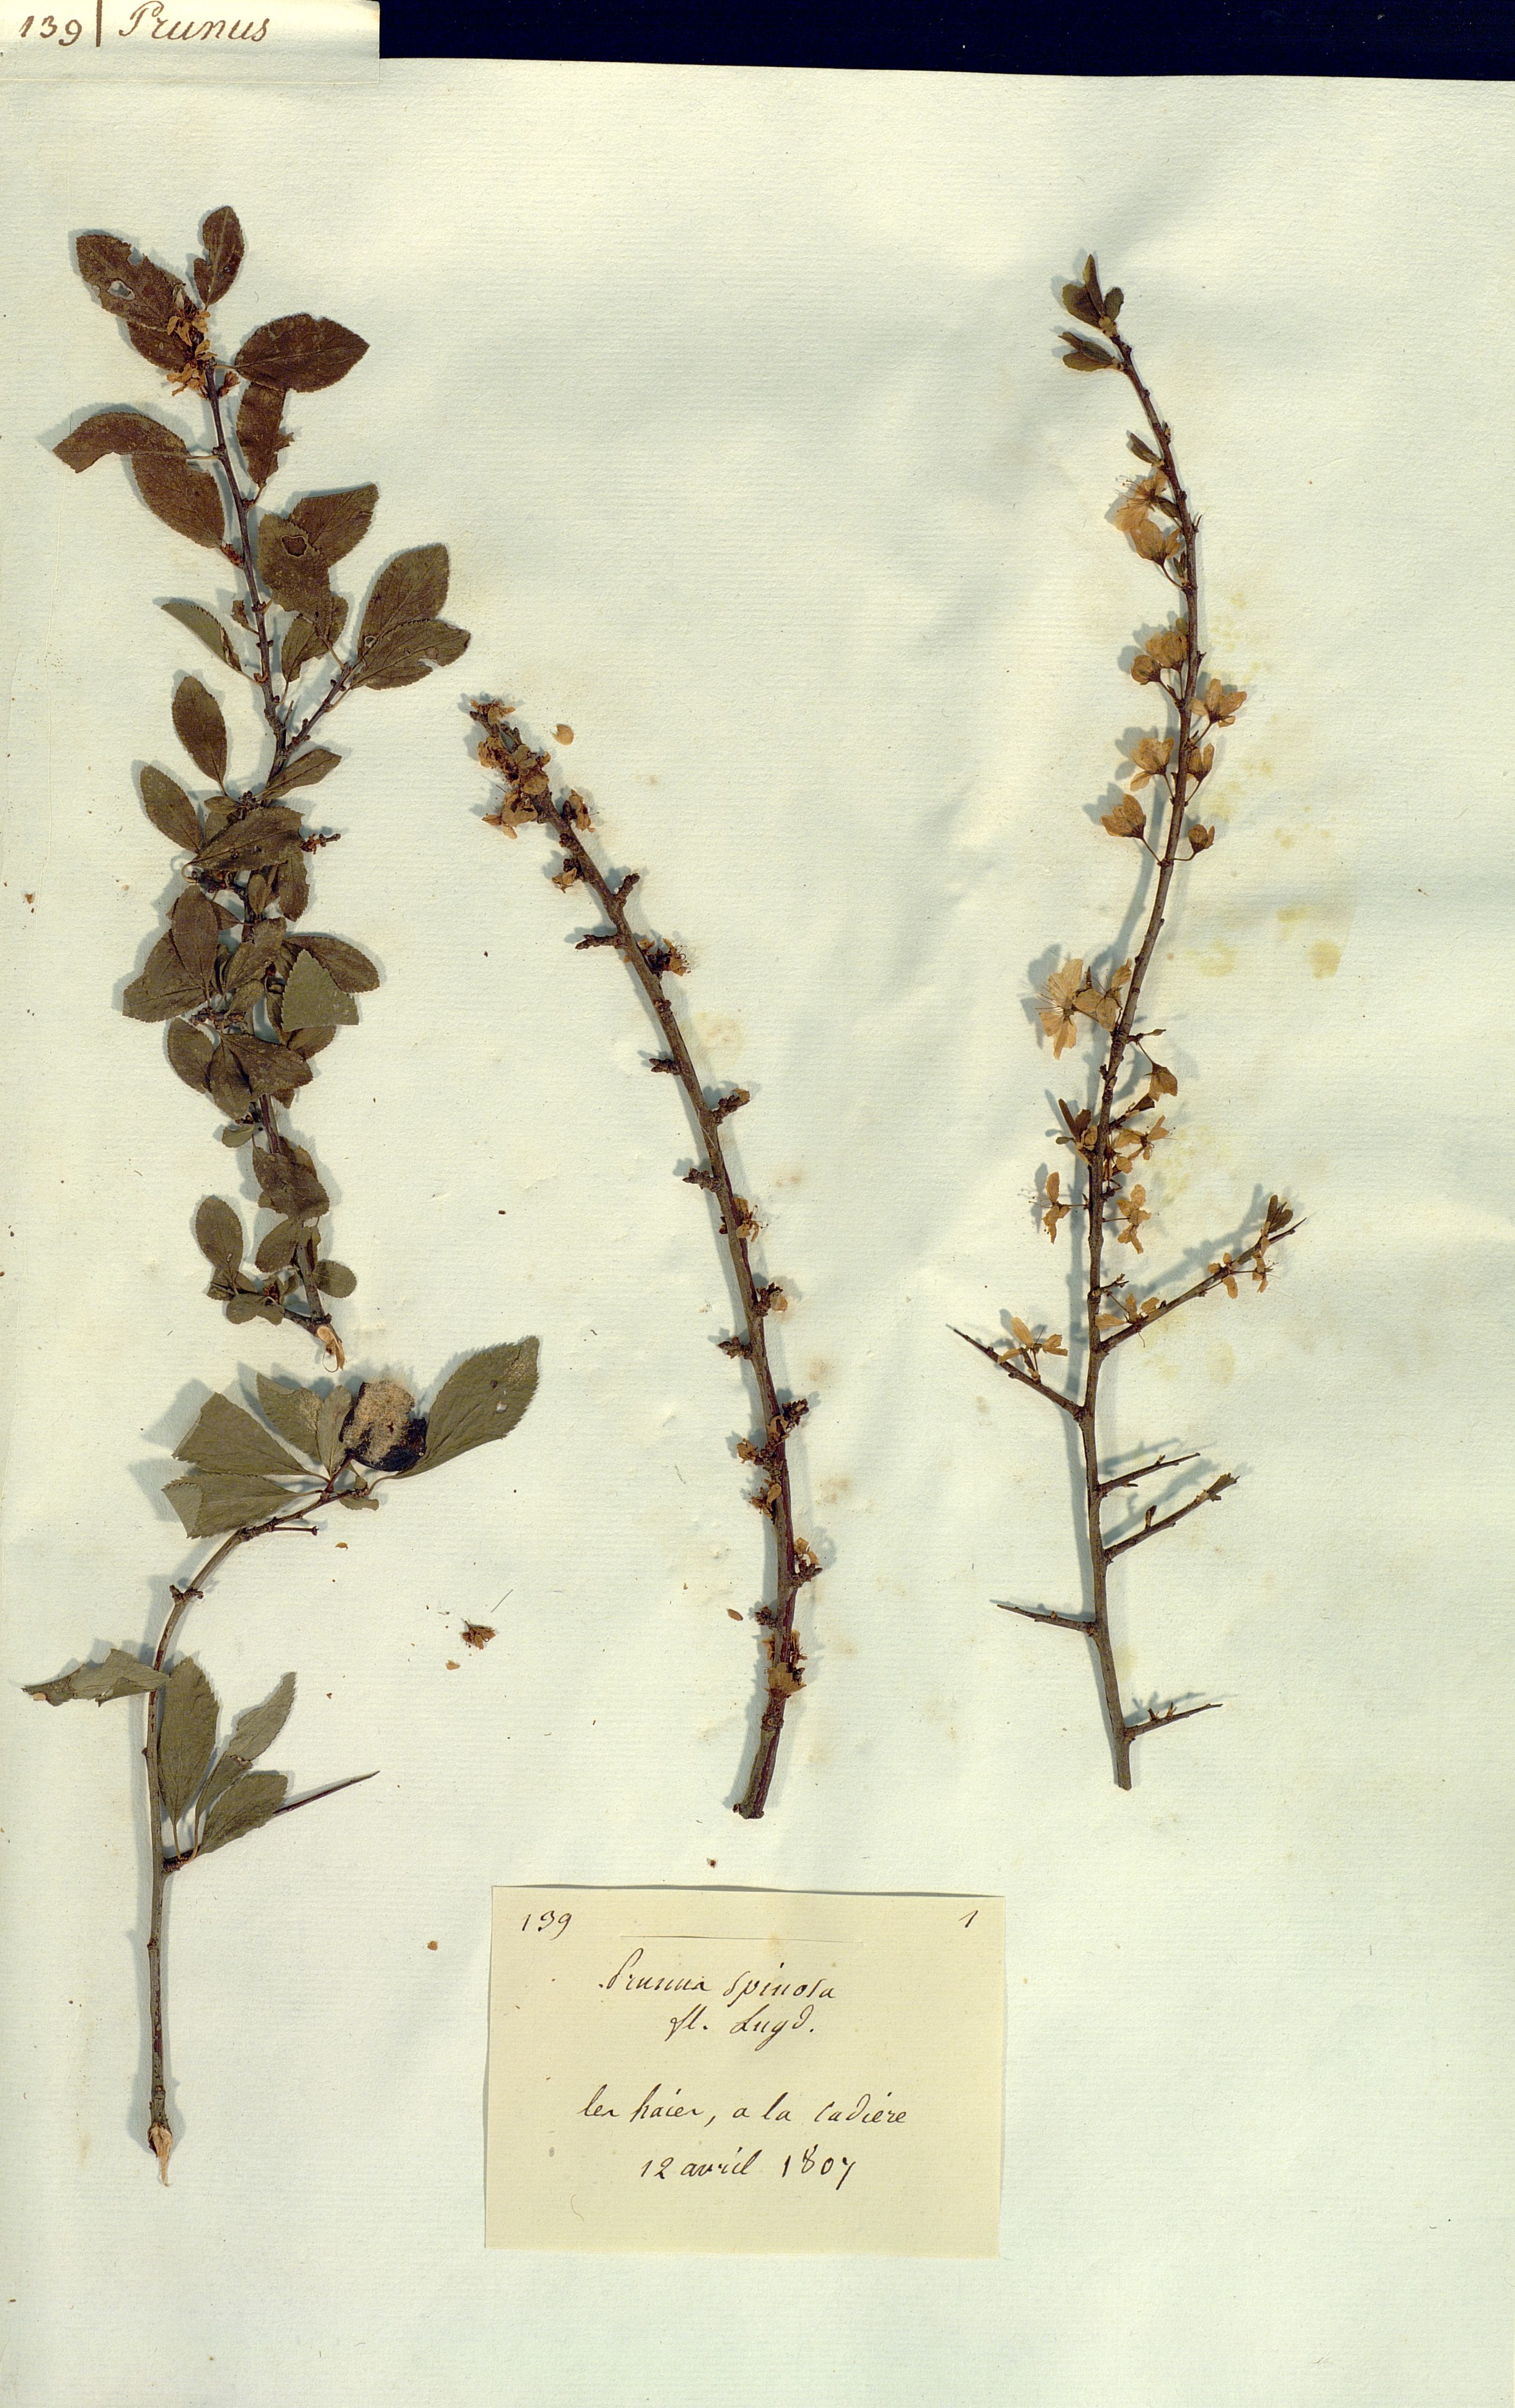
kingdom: Plantae
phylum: Tracheophyta
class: Magnoliopsida
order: Rosales
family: Rosaceae
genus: Prunus
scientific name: Prunus spinosa
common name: Blackthorn
